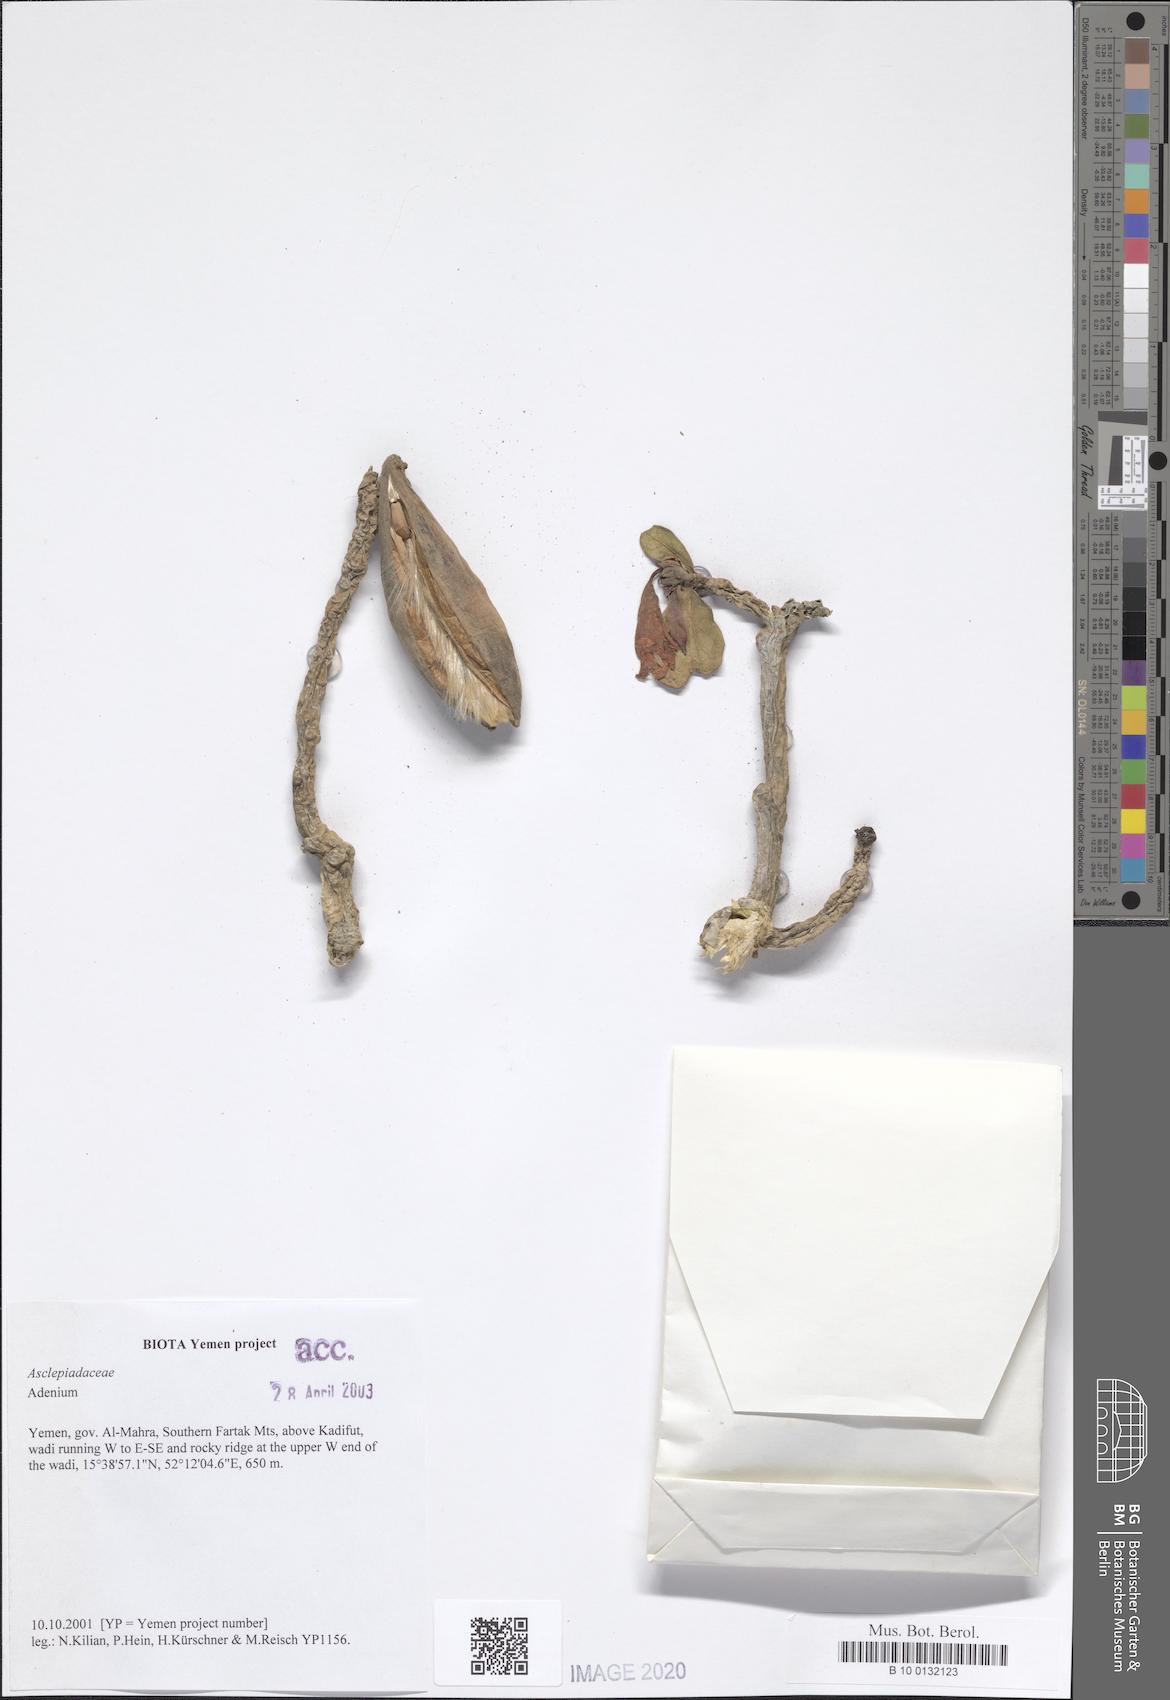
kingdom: Plantae
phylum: Tracheophyta
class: Magnoliopsida
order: Gentianales
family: Apocynaceae
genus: Adenium
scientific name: Adenium obesum
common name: Desert-rose
